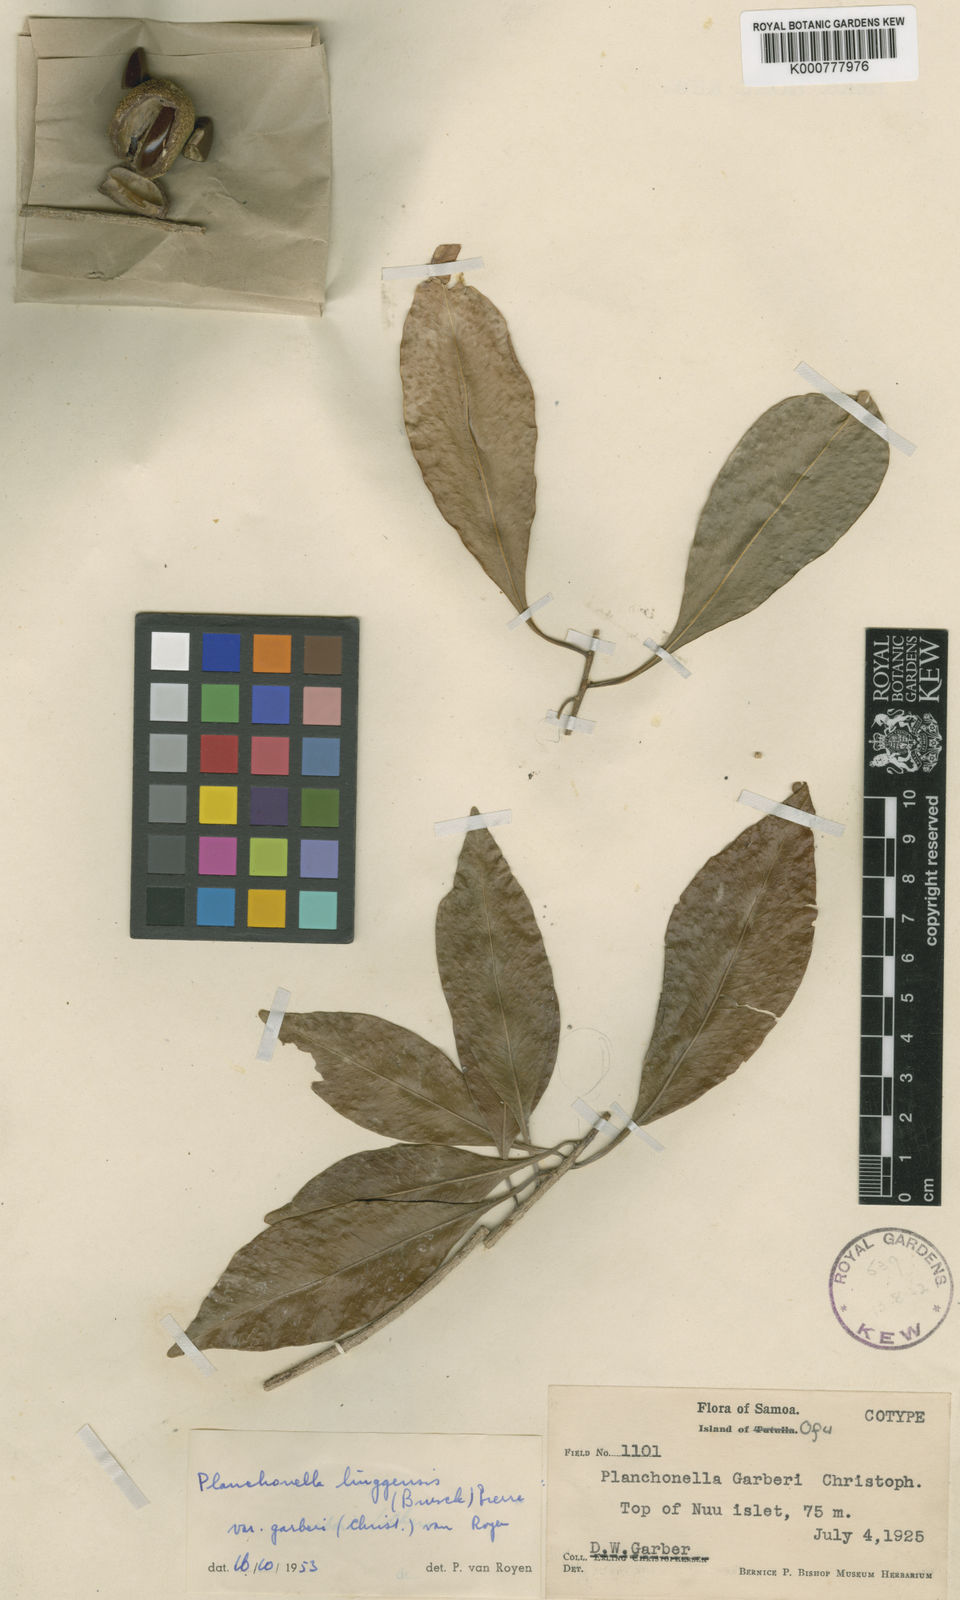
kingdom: Plantae
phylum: Tracheophyta
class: Magnoliopsida
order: Ericales
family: Sapotaceae
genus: Planchonella
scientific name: Planchonella chartacea
